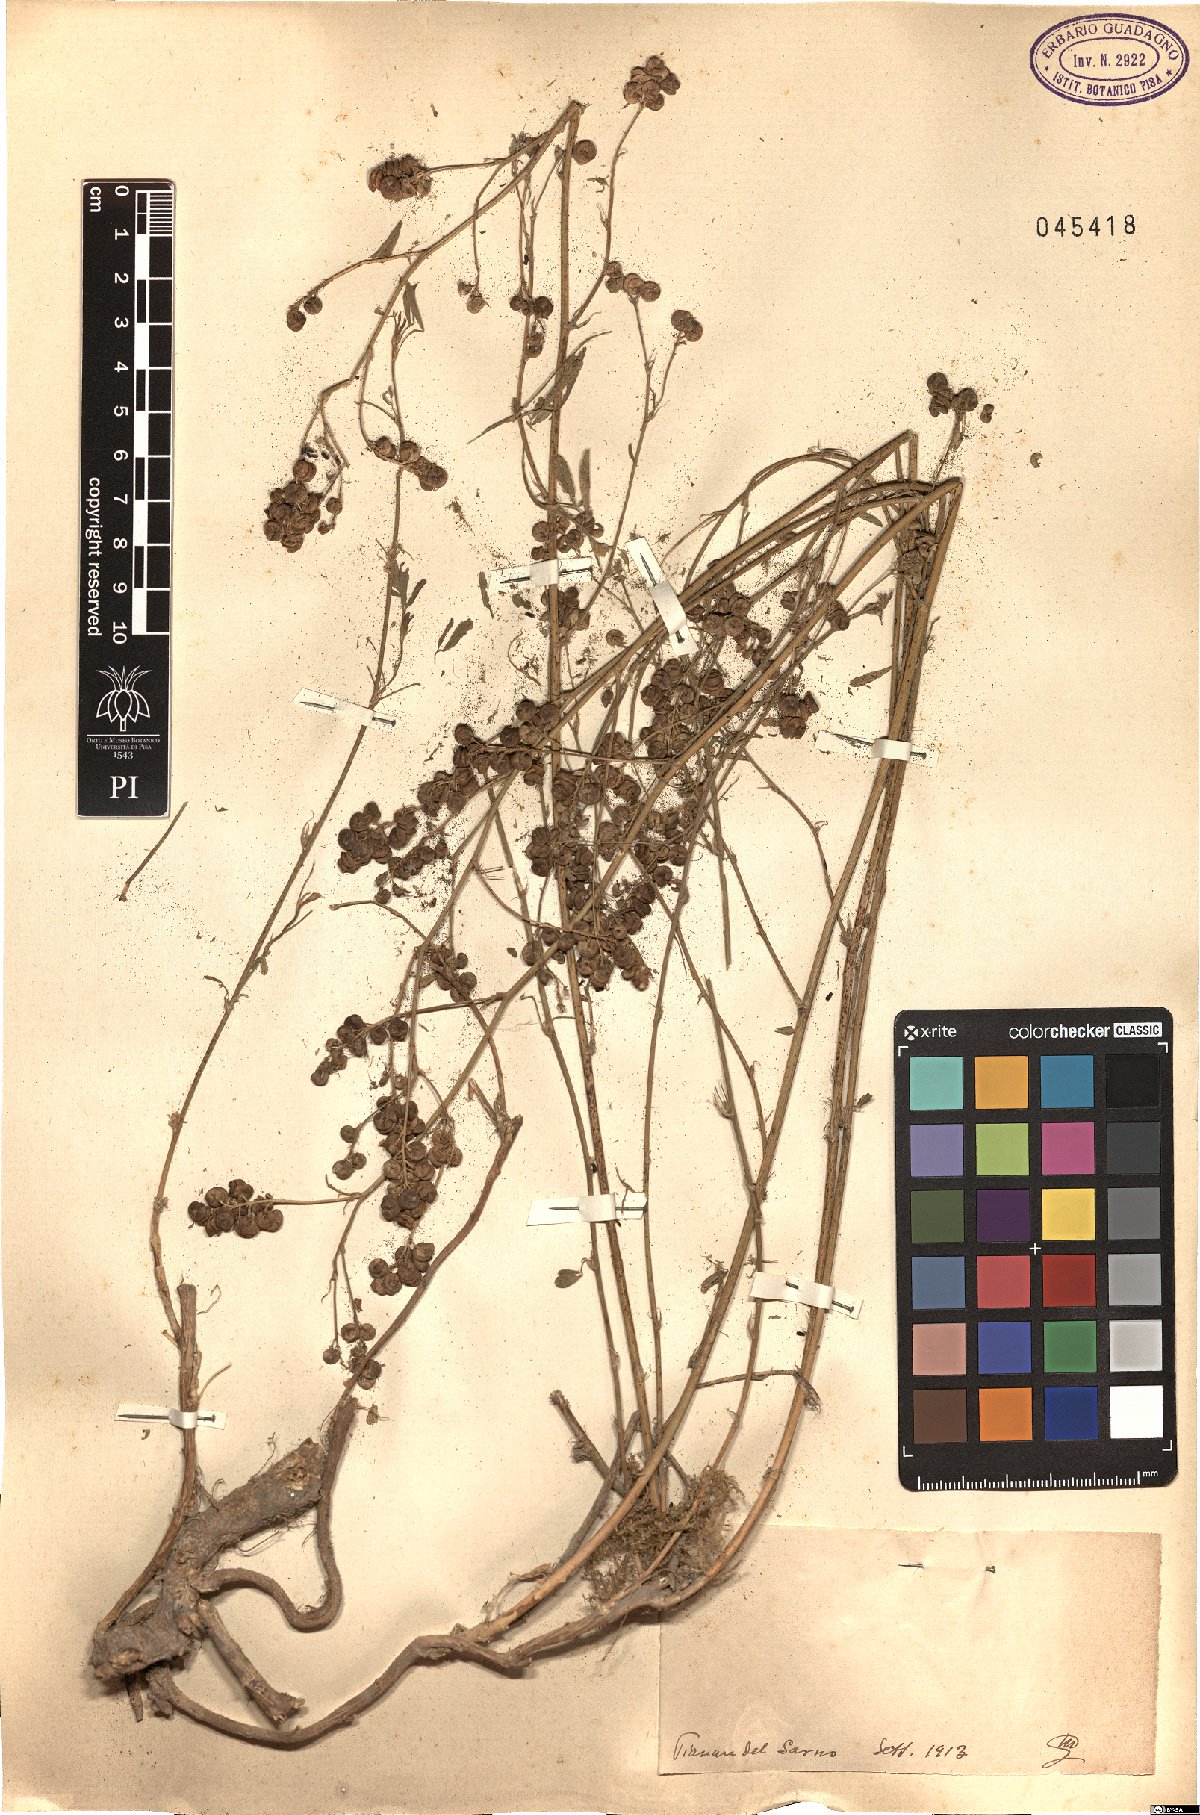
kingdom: Plantae
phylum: Tracheophyta
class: Magnoliopsida
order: Fabales
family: Fabaceae
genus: Medicago
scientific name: Medicago
